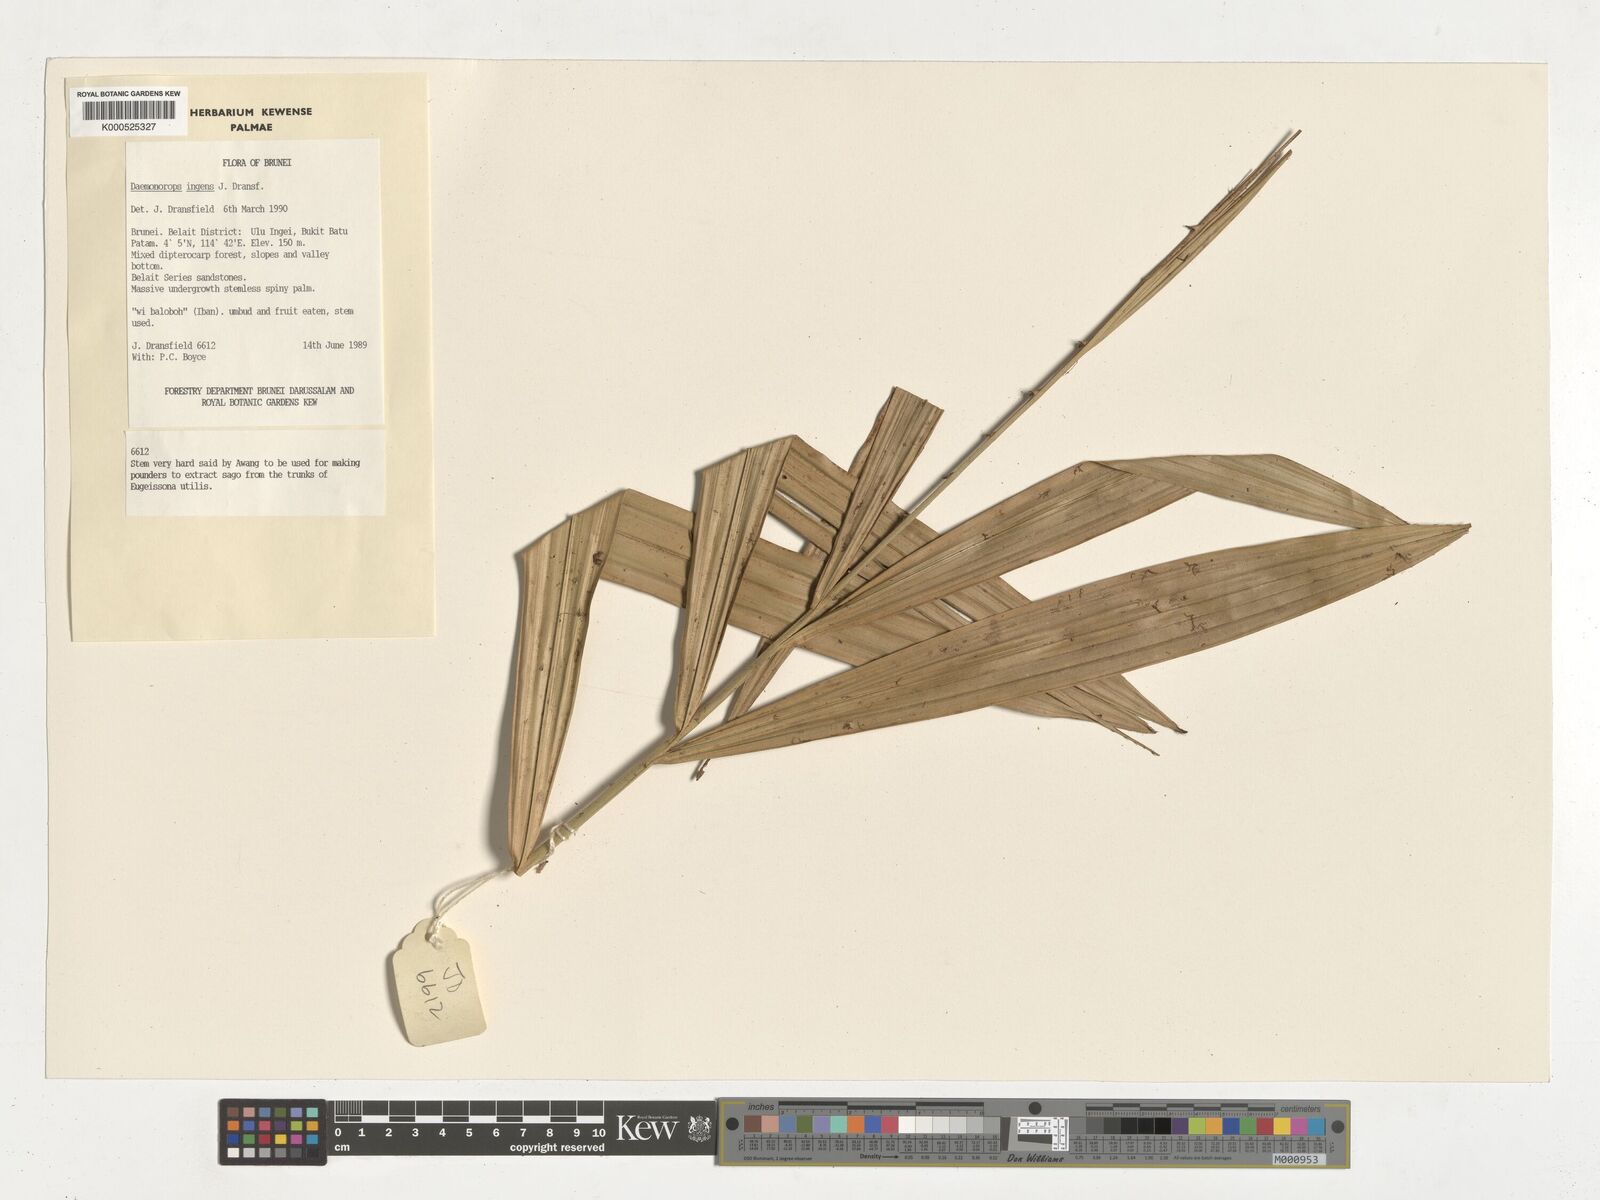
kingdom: Plantae
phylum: Tracheophyta
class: Liliopsida
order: Arecales
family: Arecaceae
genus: Calamus
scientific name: Calamus ingens
